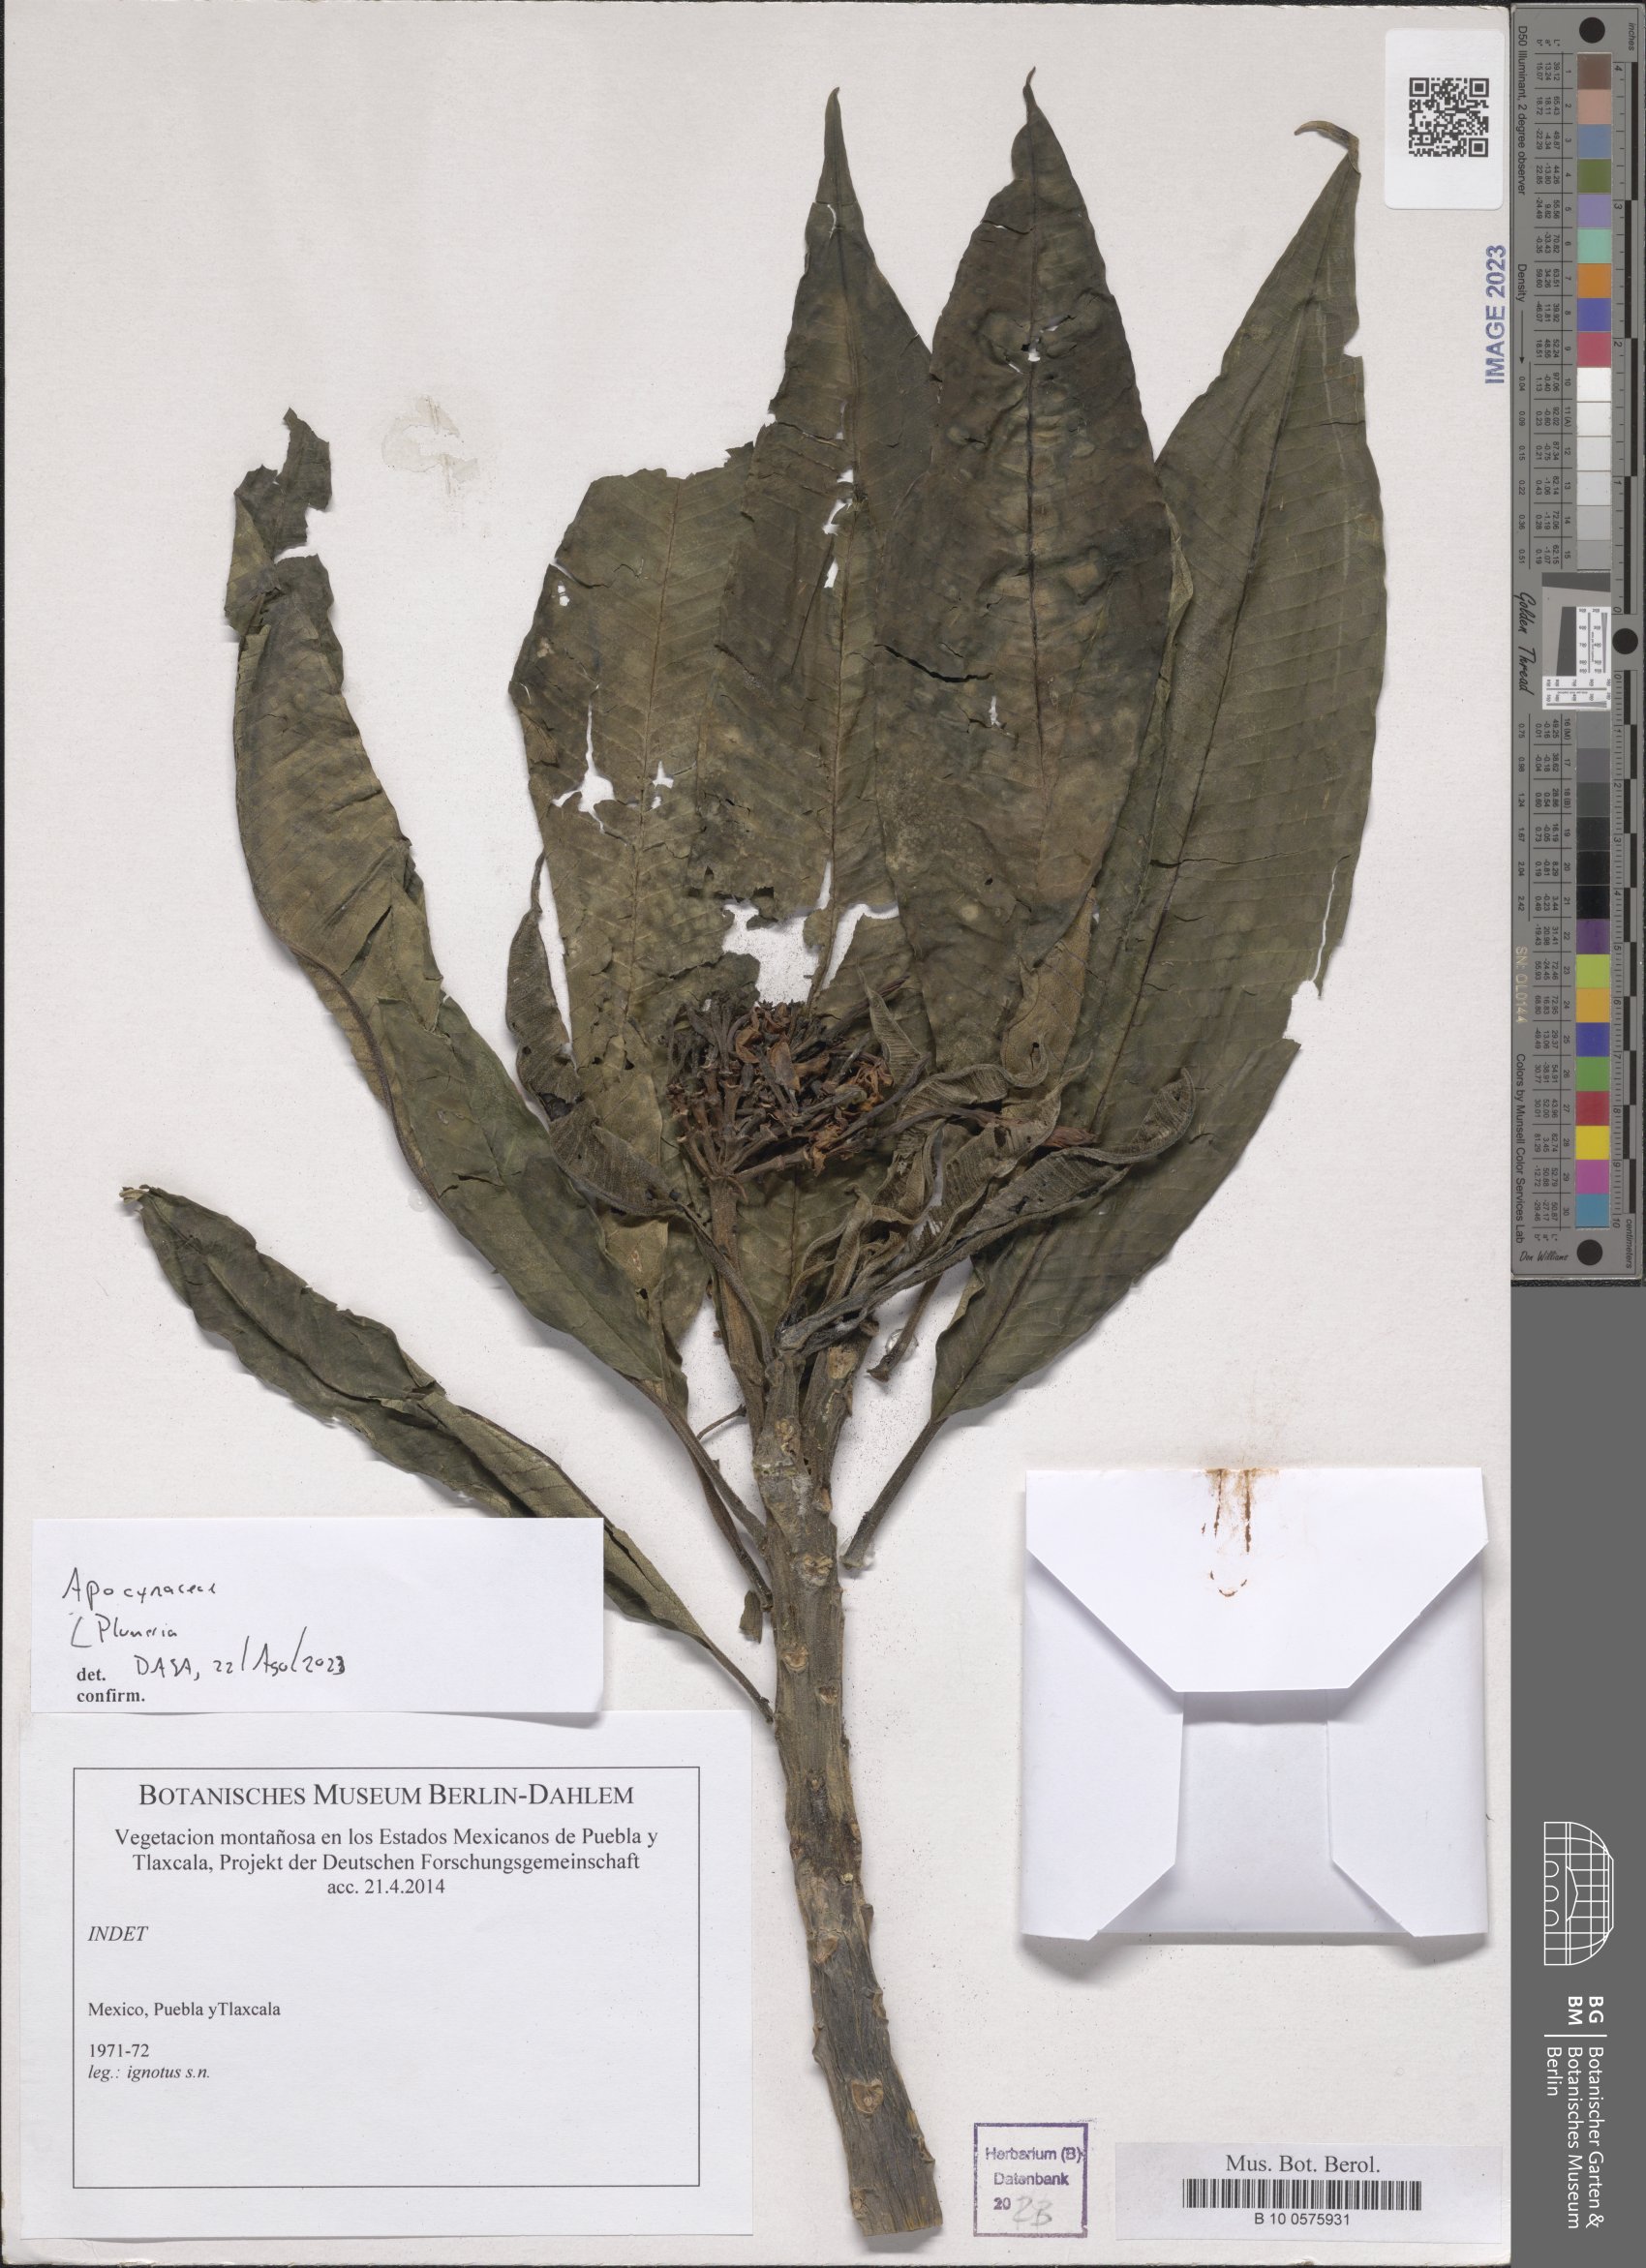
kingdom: Plantae
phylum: Tracheophyta
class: Magnoliopsida
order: Gentianales
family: Apocynaceae
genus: Plumeria
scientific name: Plumeria
